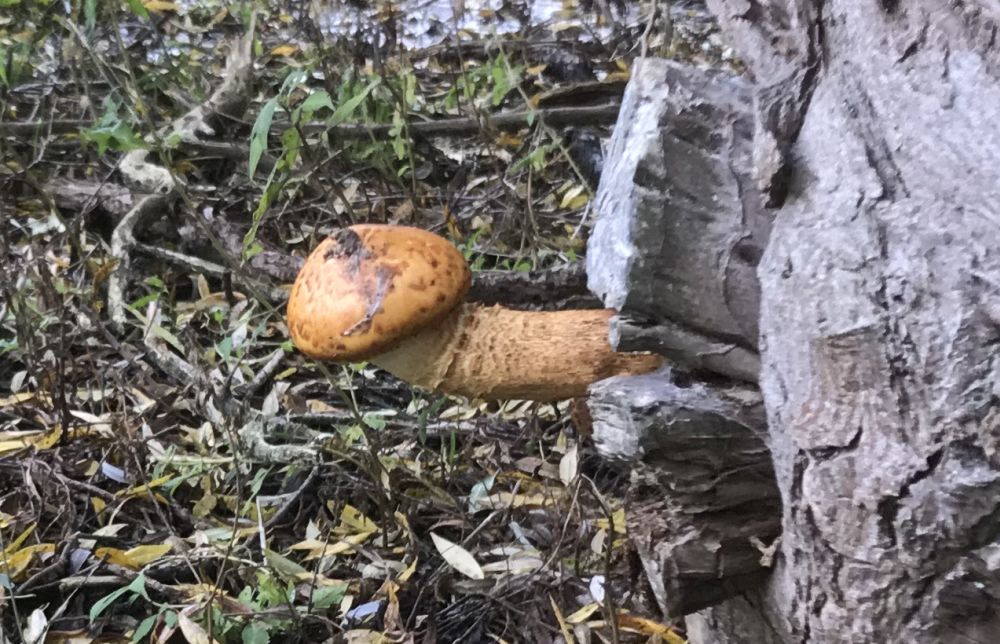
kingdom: Fungi
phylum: Basidiomycota
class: Agaricomycetes
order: Agaricales
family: Strophariaceae
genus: Pholiota
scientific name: Pholiota aurivella
